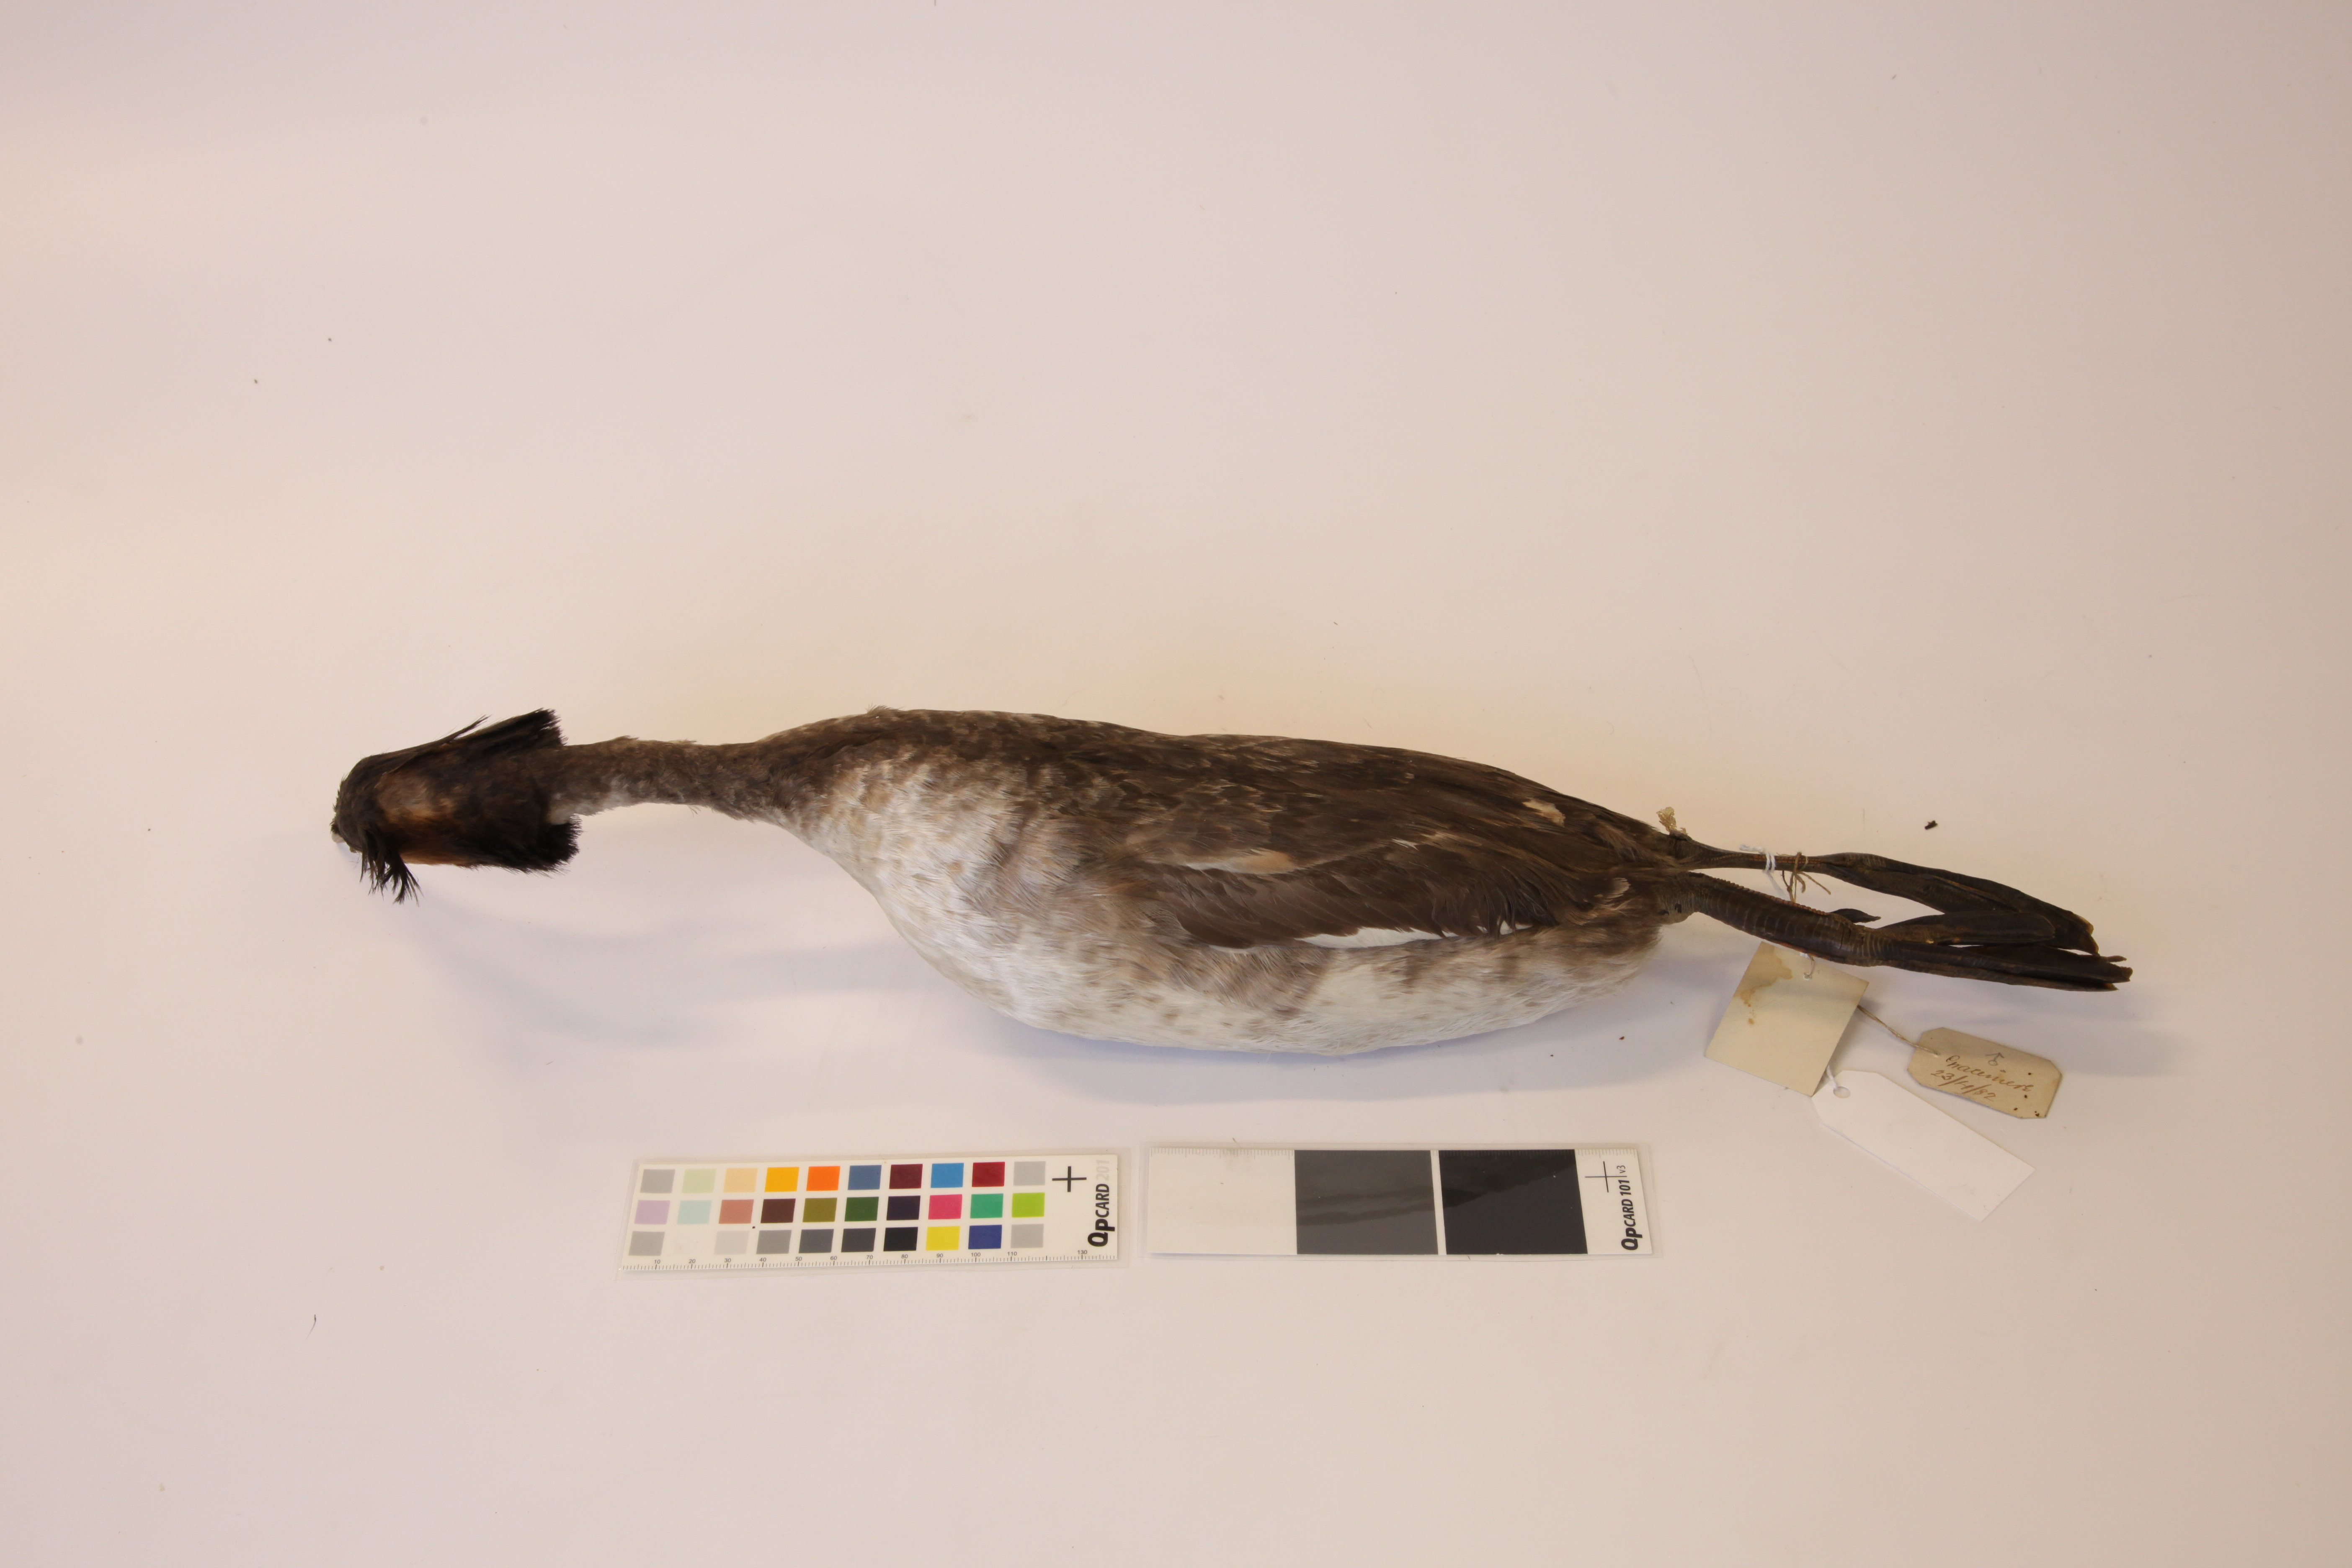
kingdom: Animalia
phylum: Chordata
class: Aves
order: Podicipediformes
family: Podicipedidae
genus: Podiceps
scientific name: Podiceps cristatus
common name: Great crested grebe
